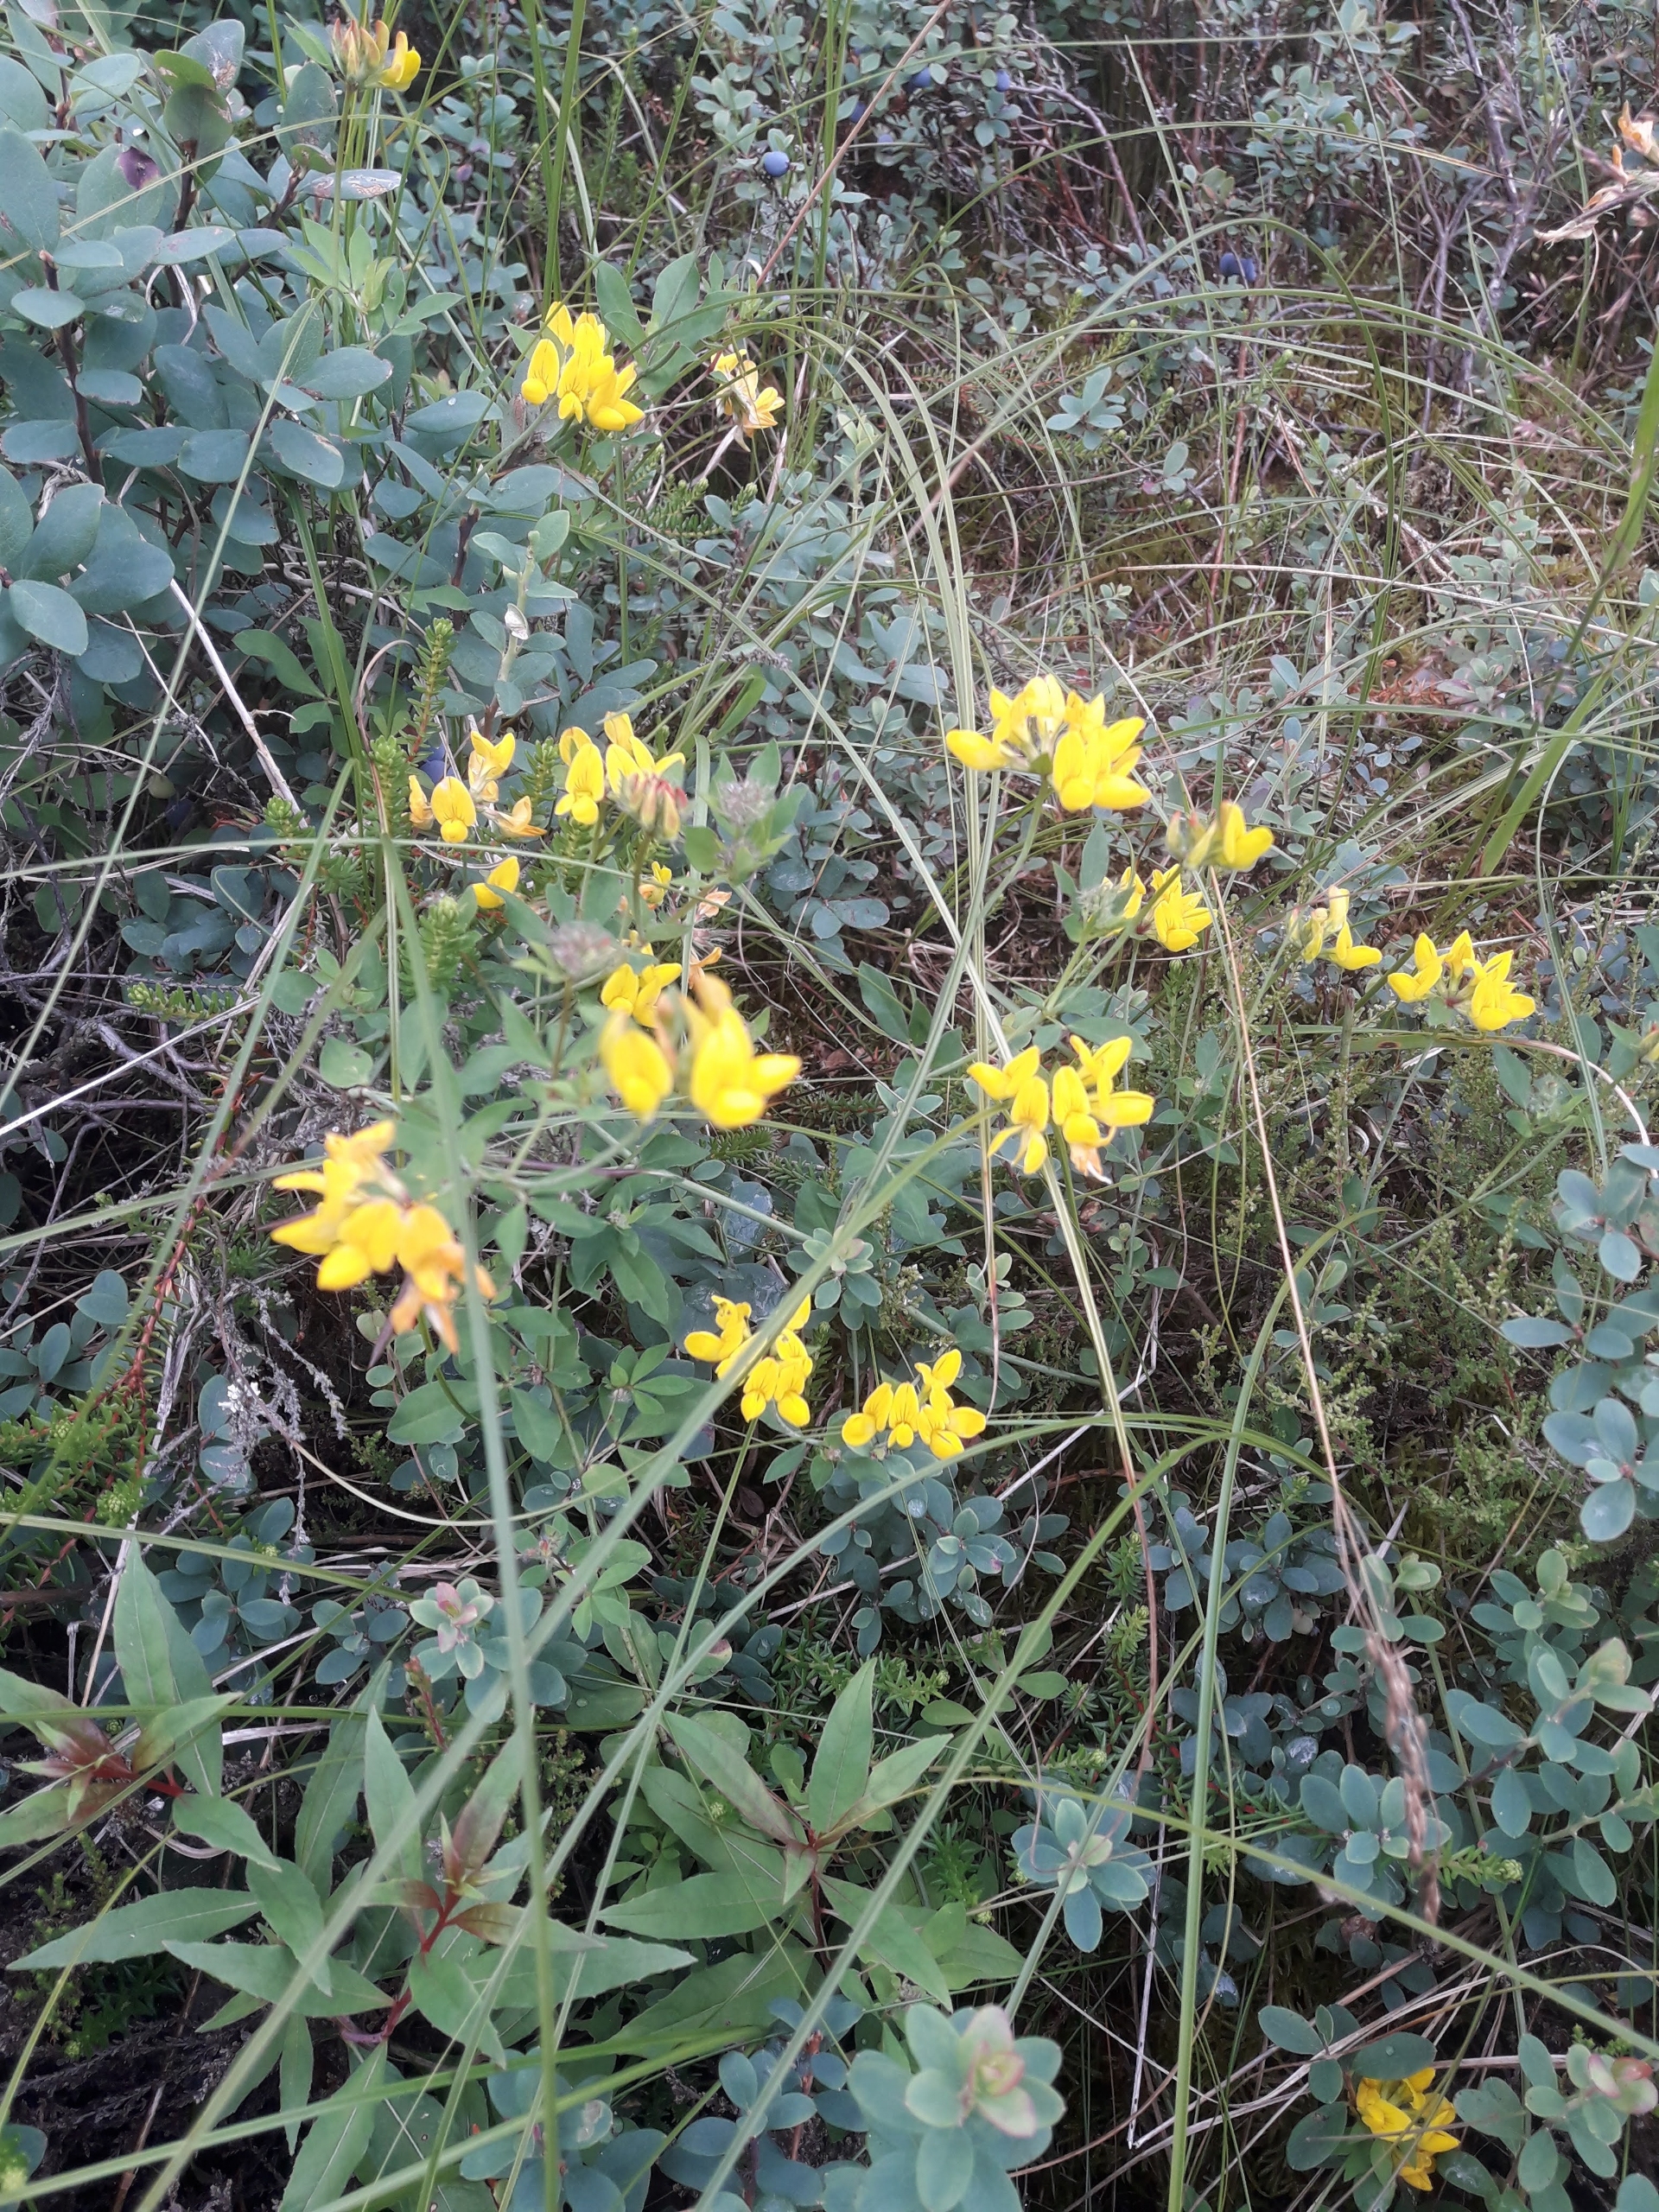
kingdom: Plantae
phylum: Tracheophyta
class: Magnoliopsida
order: Fabales
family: Fabaceae
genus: Lotus
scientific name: Lotus corniculatus
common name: Almindelig kællingetand
